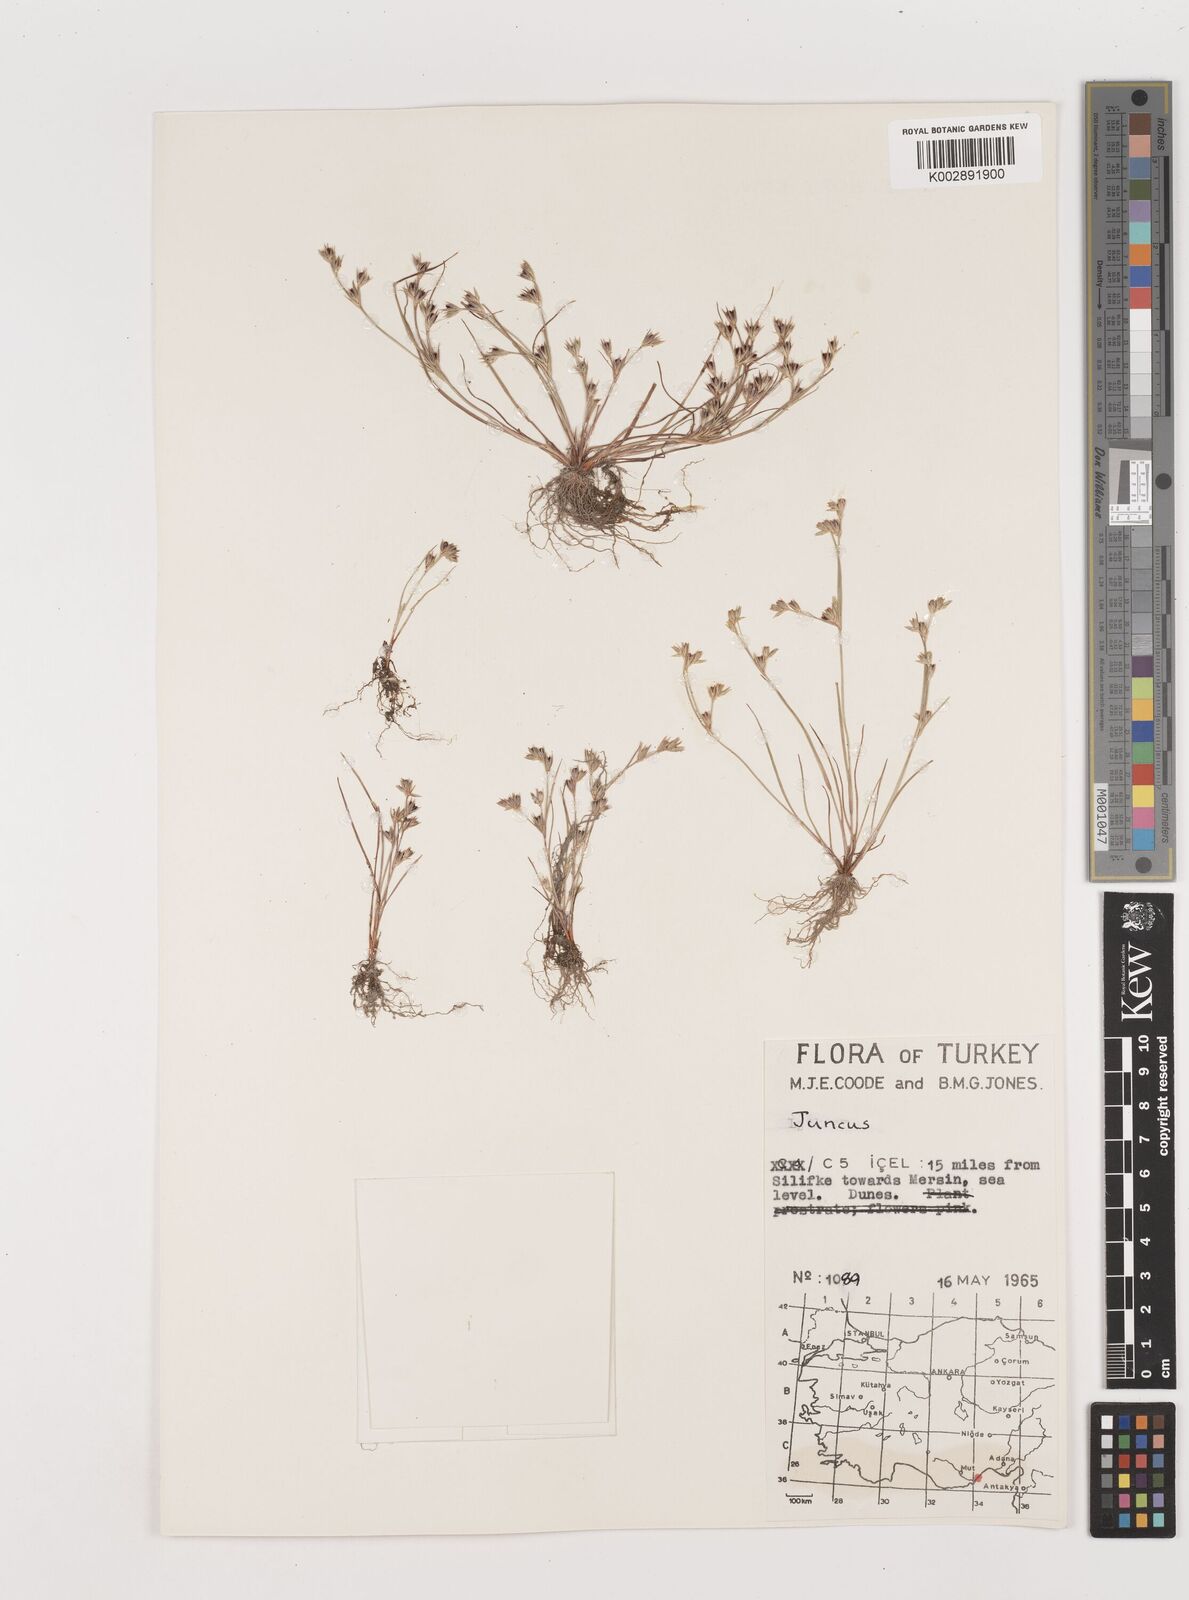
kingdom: Plantae
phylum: Tracheophyta
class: Liliopsida
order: Poales
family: Juncaceae
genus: Juncus
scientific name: Juncus
